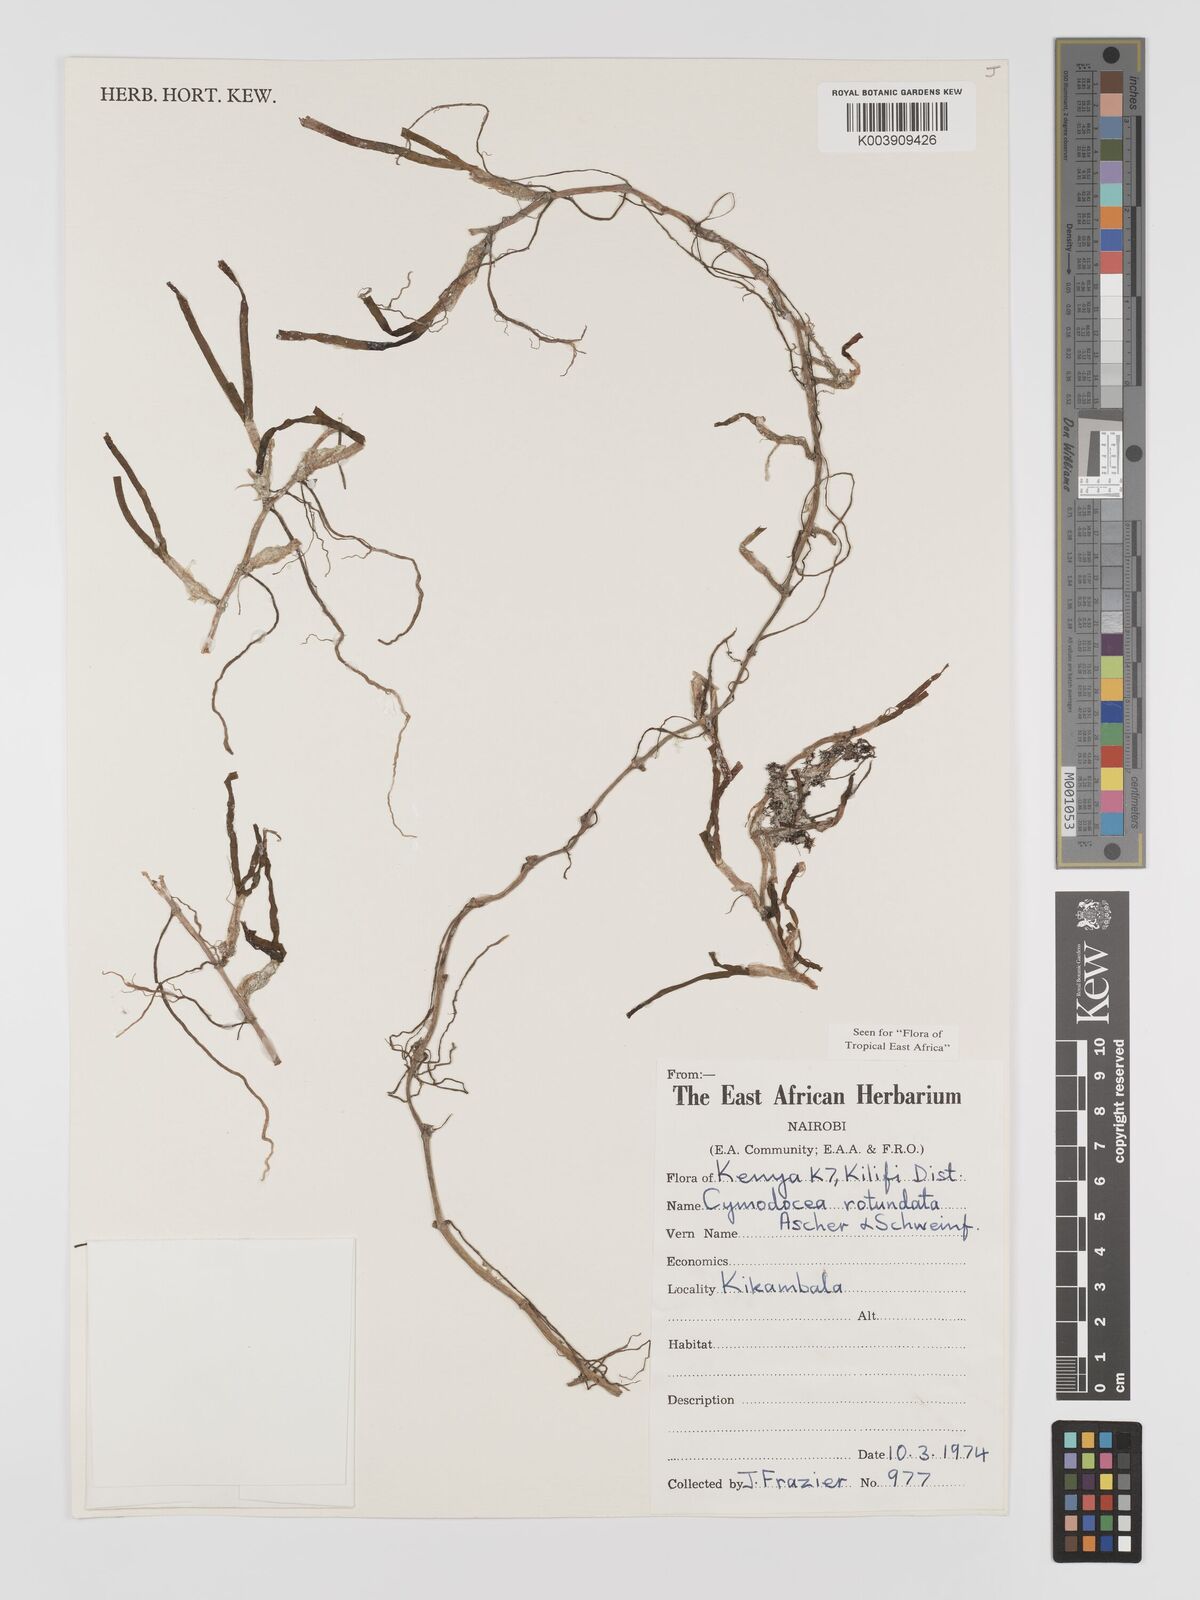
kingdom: Plantae
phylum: Tracheophyta
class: Liliopsida
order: Alismatales
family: Cymodoceaceae
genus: Cymodocea
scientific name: Cymodocea rotundata
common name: Species code: cr
